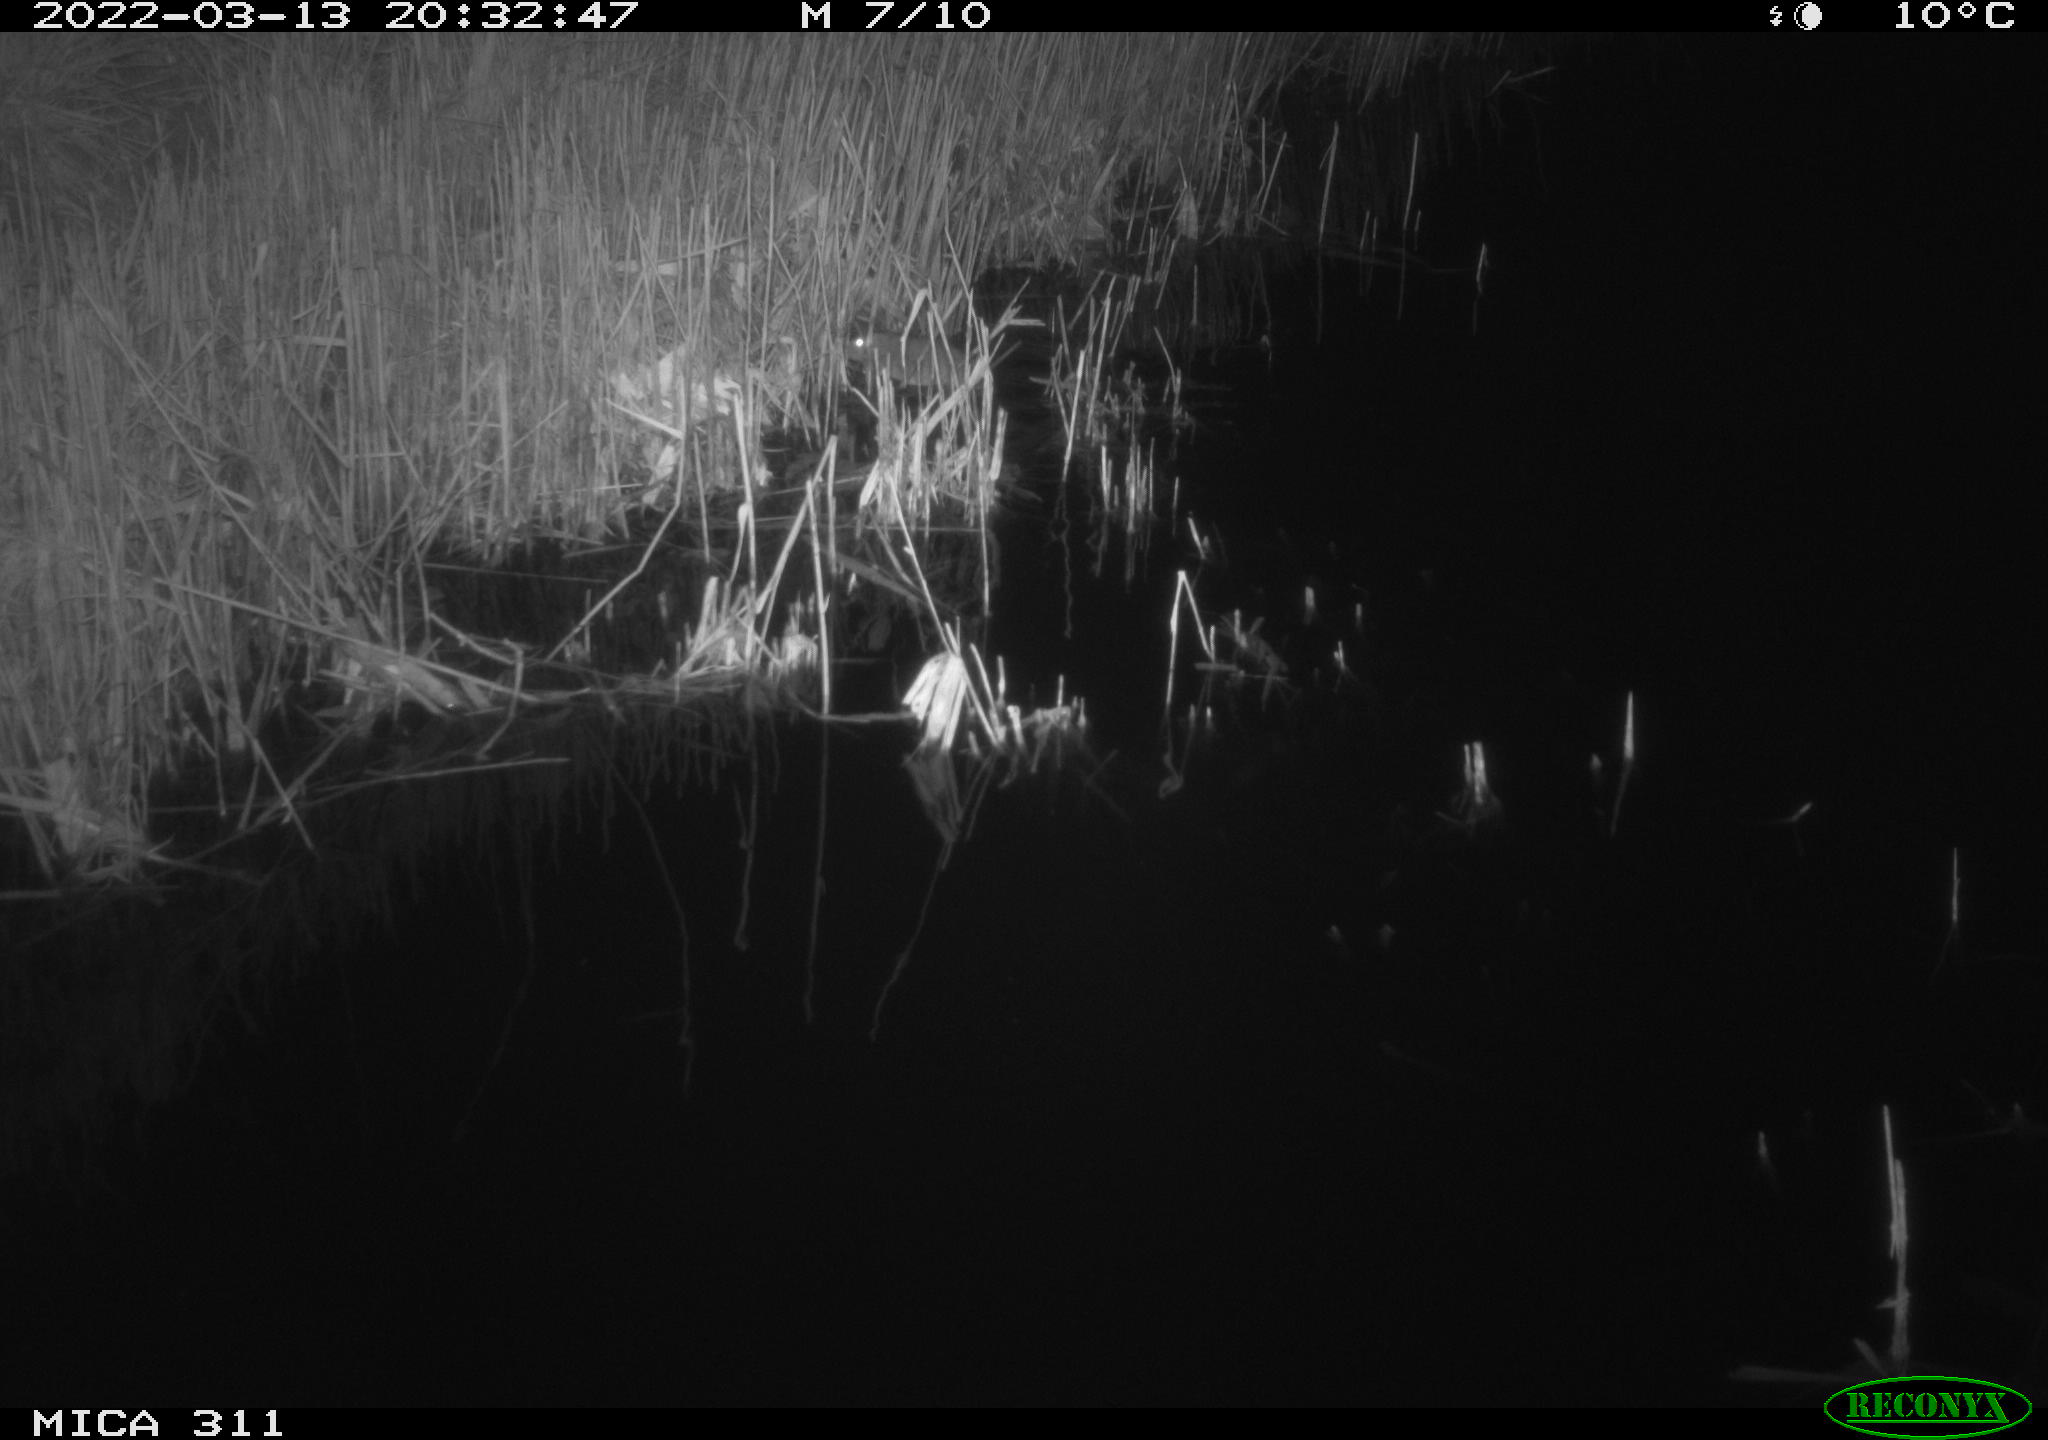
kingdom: Animalia
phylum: Chordata
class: Mammalia
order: Rodentia
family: Muridae
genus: Rattus
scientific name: Rattus norvegicus
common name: Brown rat
